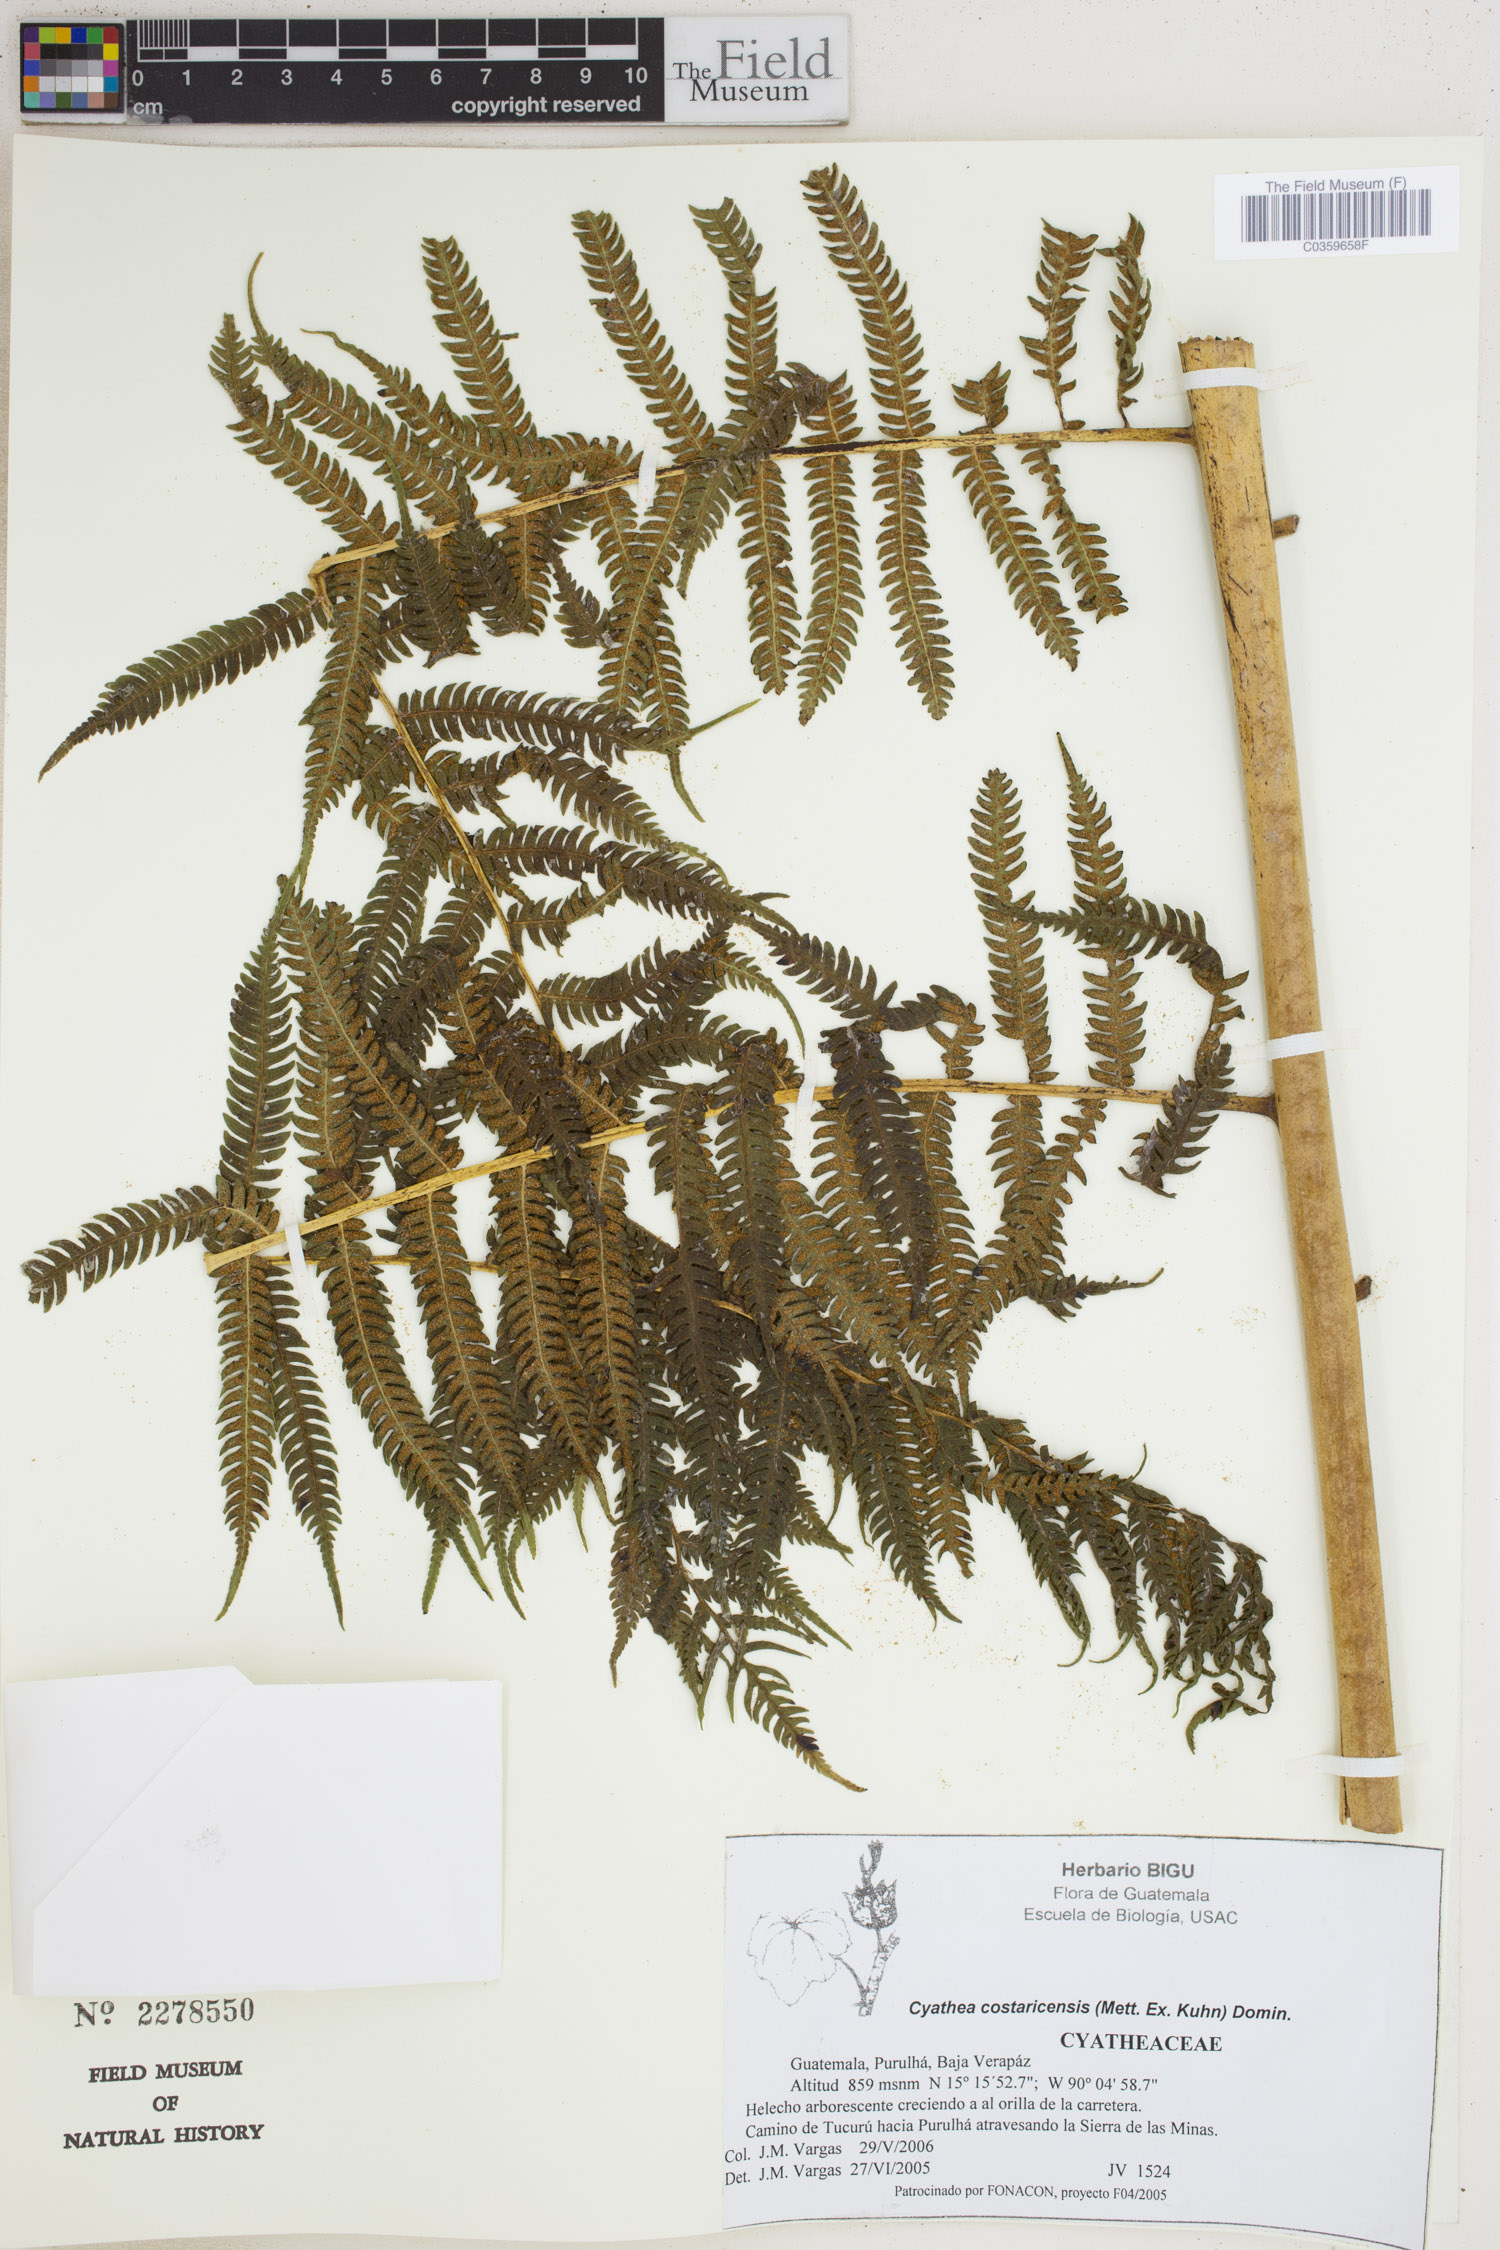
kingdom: Plantae
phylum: Tracheophyta
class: Polypodiopsida
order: Cyatheales
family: Cyatheaceae
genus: Cyathea
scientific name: Cyathea costaricensis
